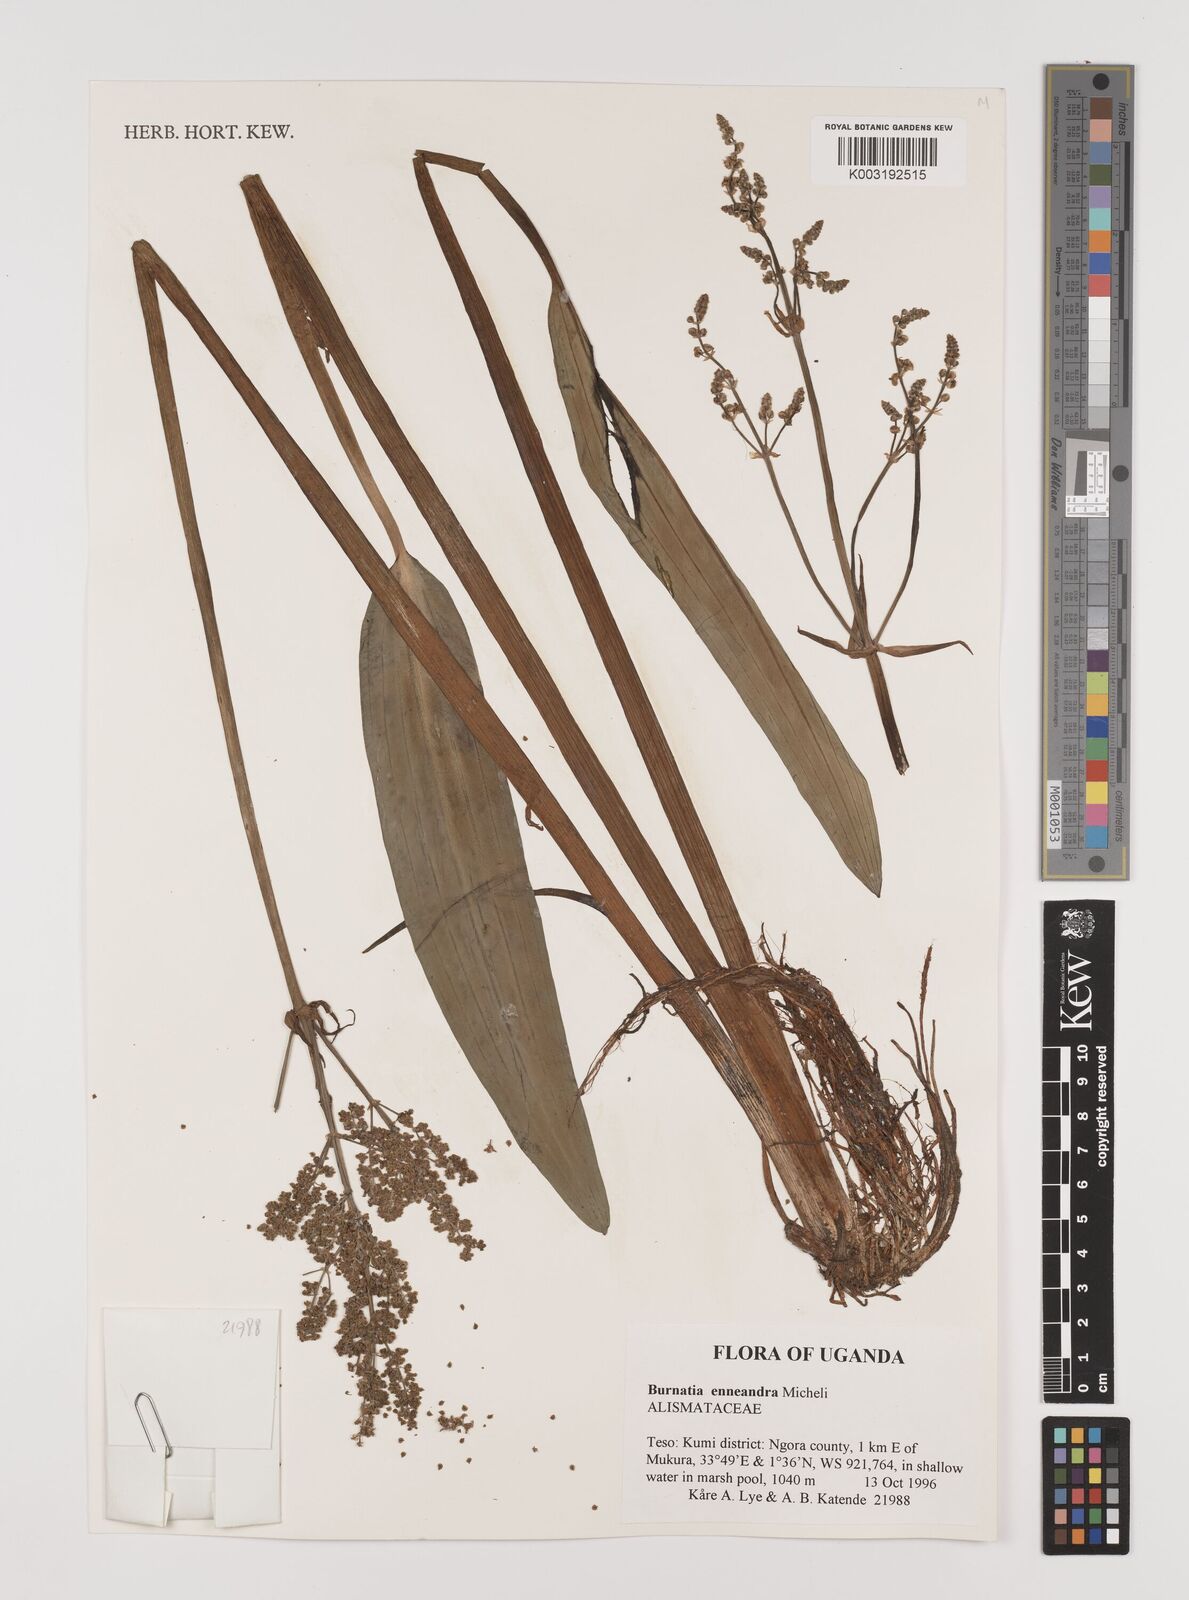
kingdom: Plantae
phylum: Tracheophyta
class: Liliopsida
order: Alismatales
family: Alismataceae
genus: Burnatia
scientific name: Burnatia enneandra
